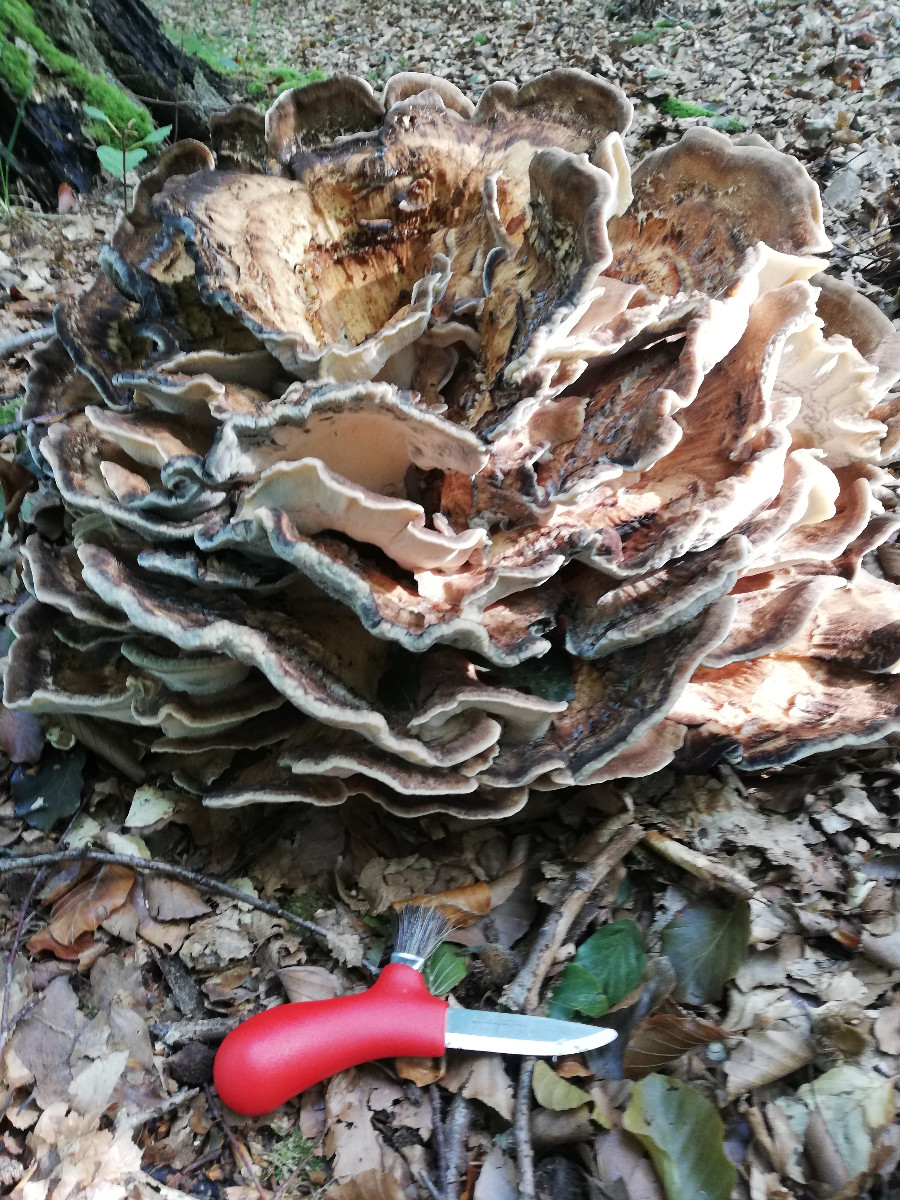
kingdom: Fungi
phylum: Basidiomycota
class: Agaricomycetes
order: Polyporales
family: Meripilaceae
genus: Meripilus
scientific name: Meripilus giganteus
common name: kæmpeporesvamp
